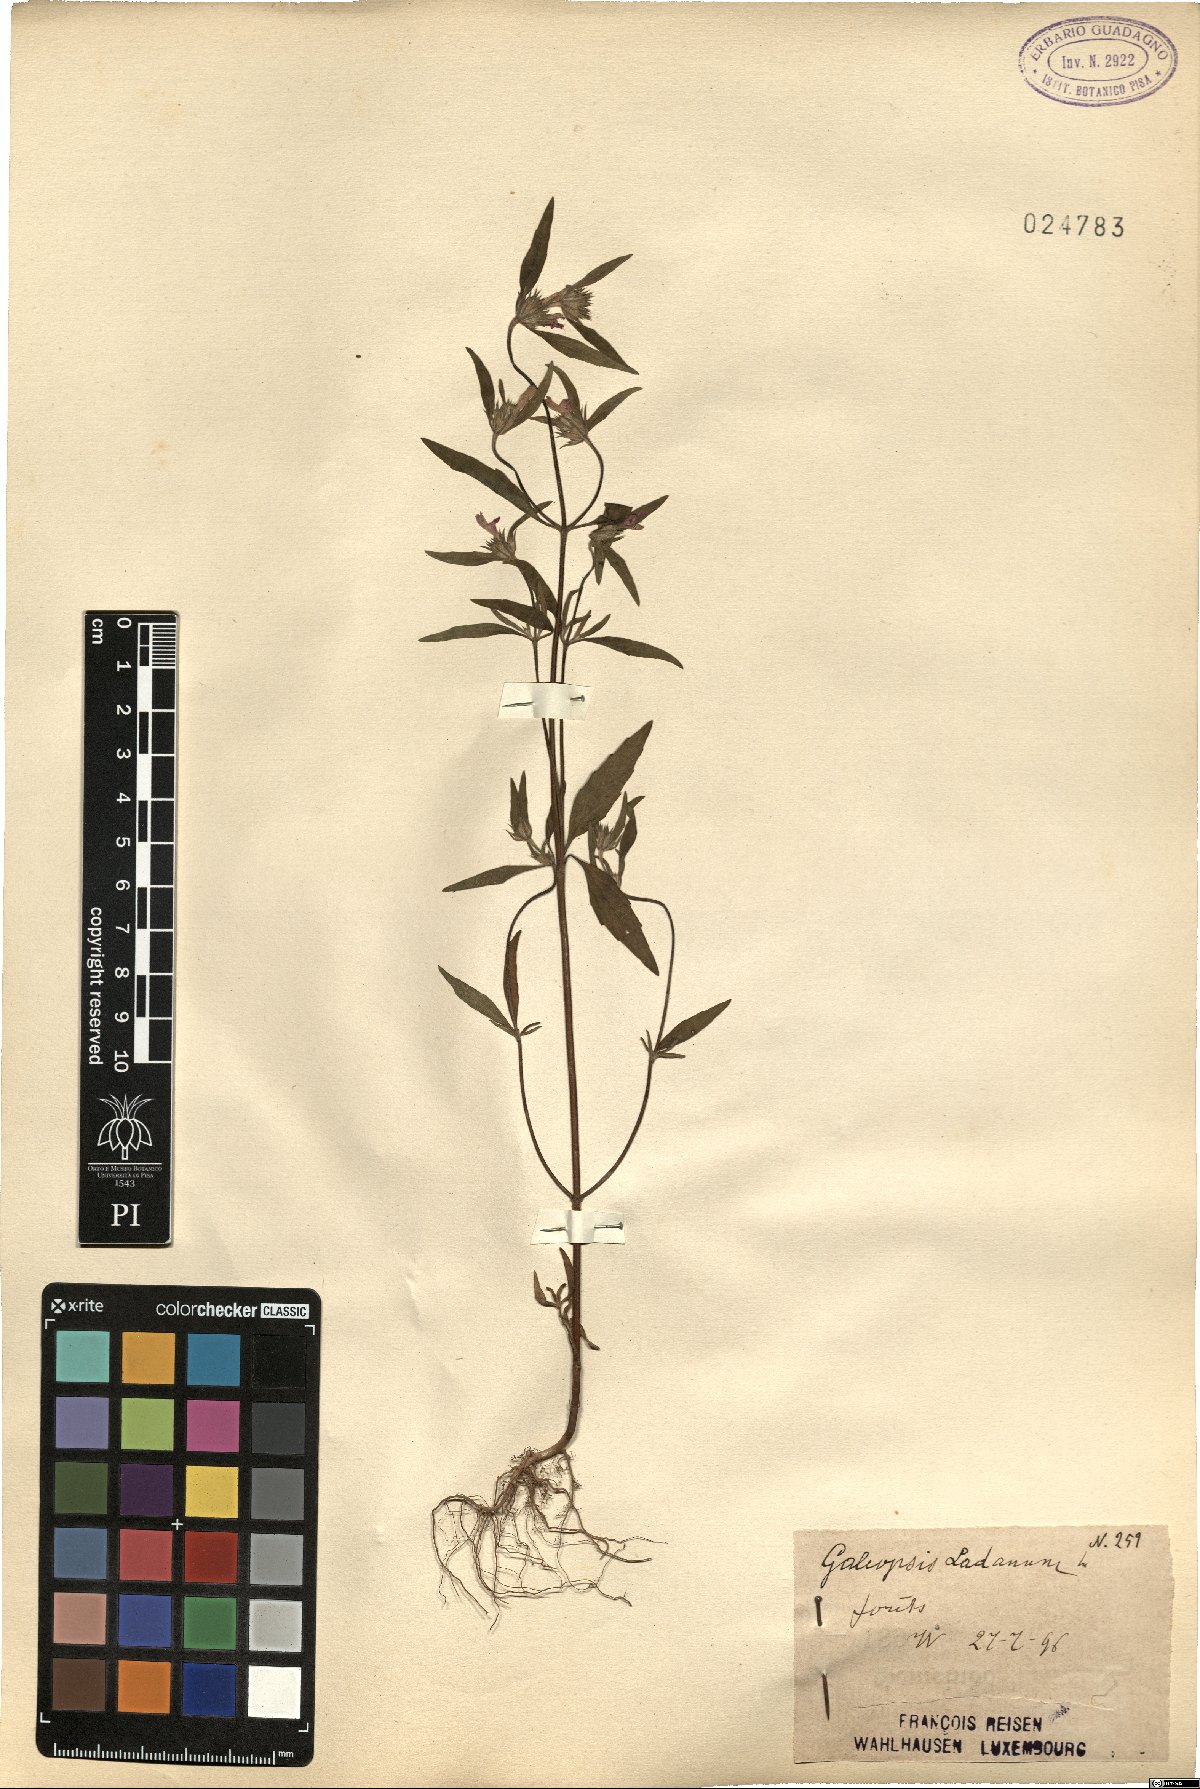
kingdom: Plantae
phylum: Tracheophyta
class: Magnoliopsida
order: Lamiales
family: Lamiaceae
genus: Galeopsis
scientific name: Galeopsis ladanum
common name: Broad-leaved hemp-nettle
